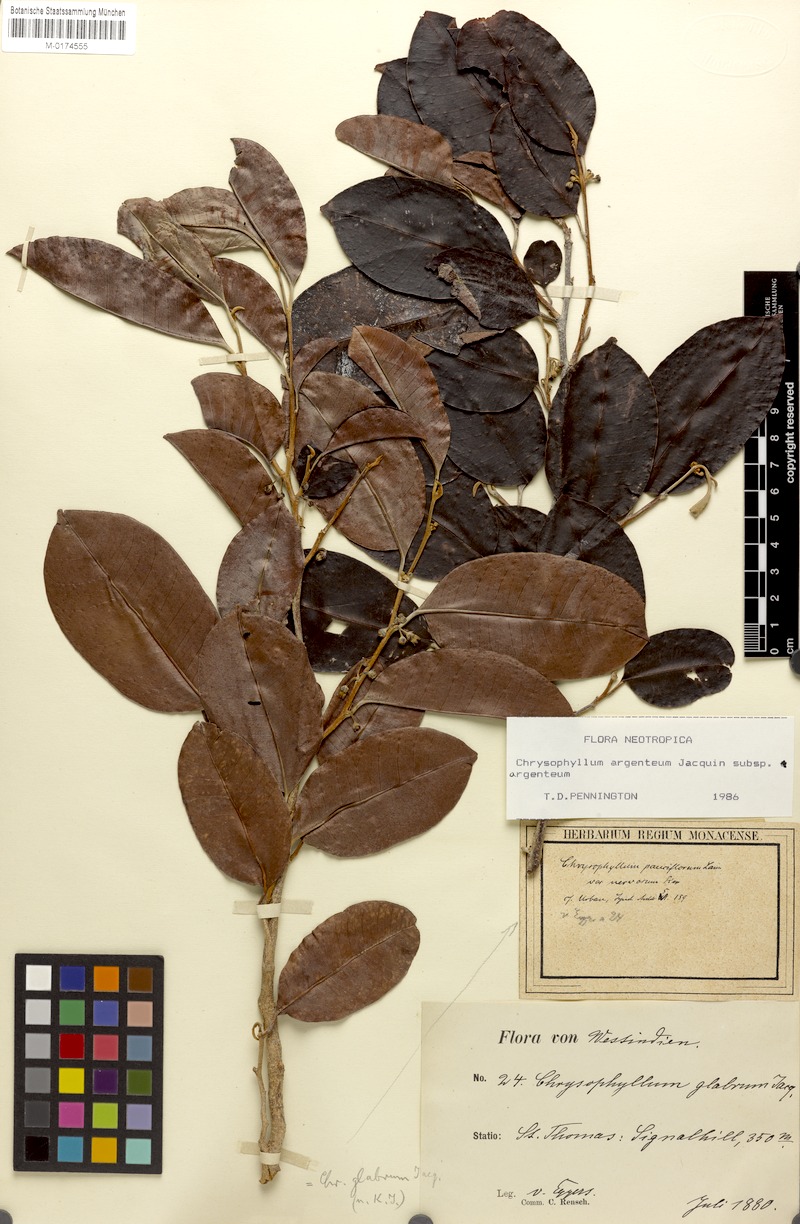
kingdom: Plantae
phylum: Tracheophyta
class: Magnoliopsida
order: Ericales
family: Sapotaceae
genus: Chrysophyllum
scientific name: Chrysophyllum pauciflorum
